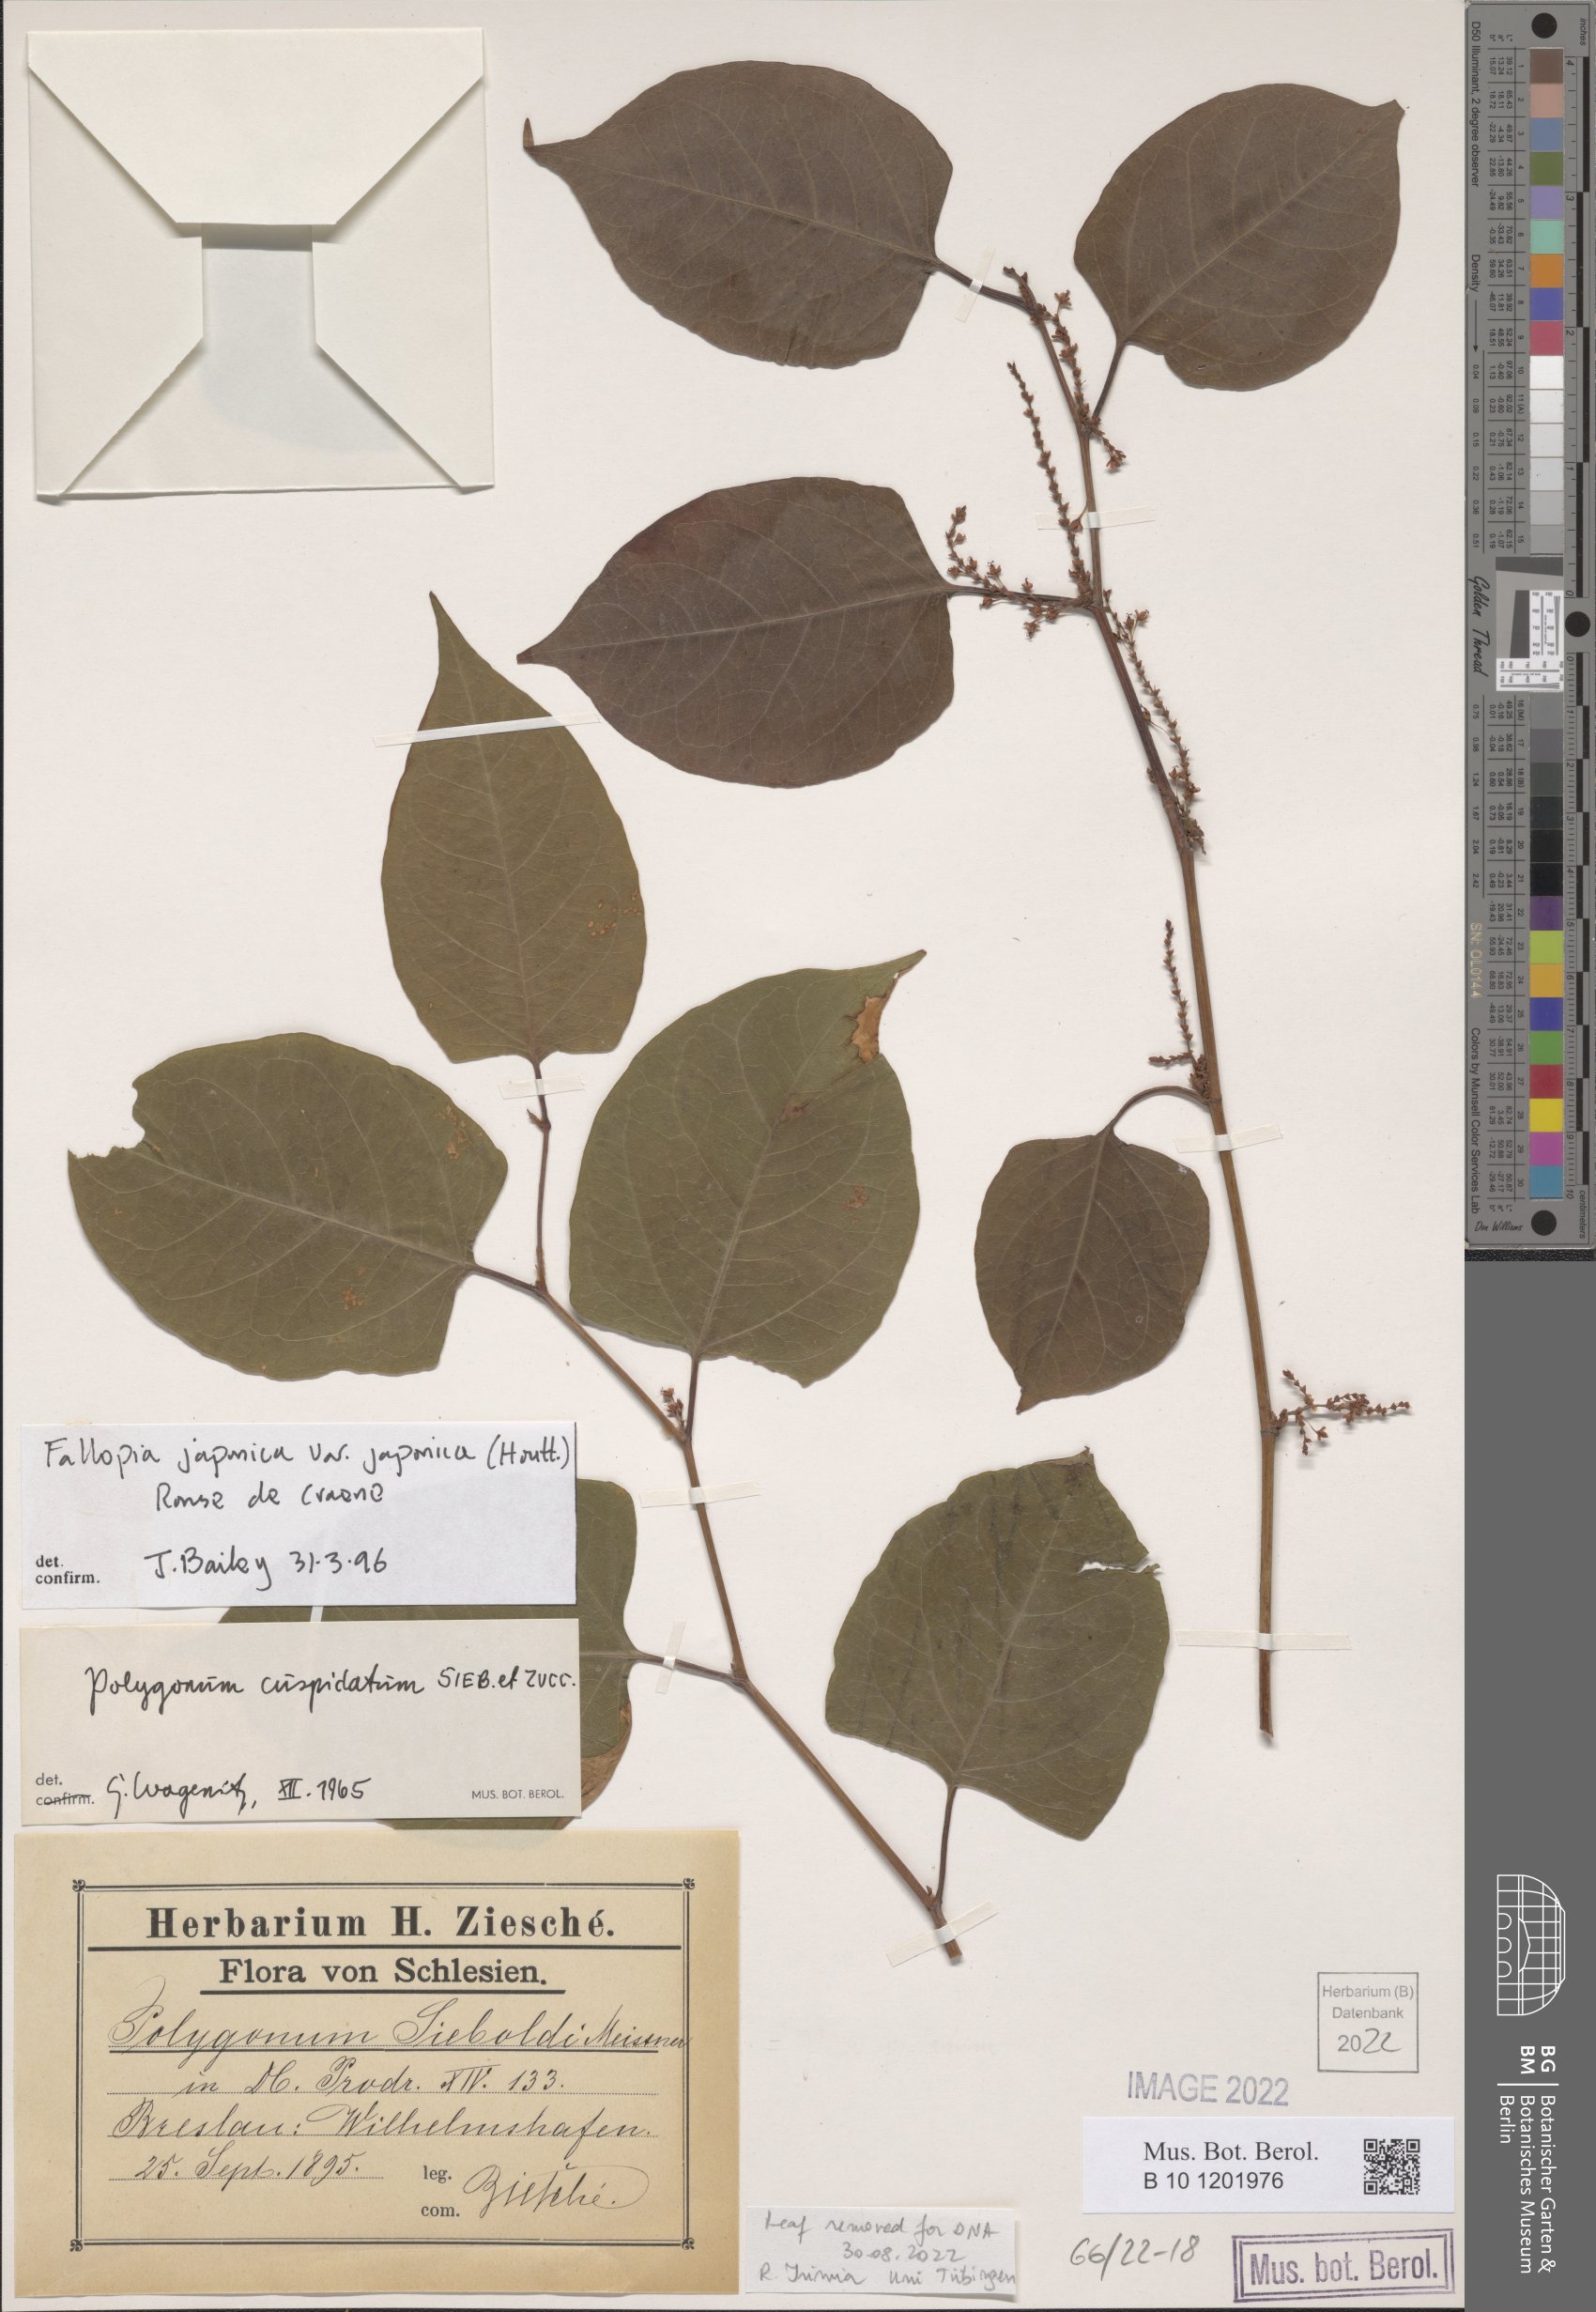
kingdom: Plantae
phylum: Tracheophyta
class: Magnoliopsida
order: Caryophyllales
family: Polygonaceae
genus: Reynoutria
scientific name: Reynoutria japonica
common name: Japanese knotweed
